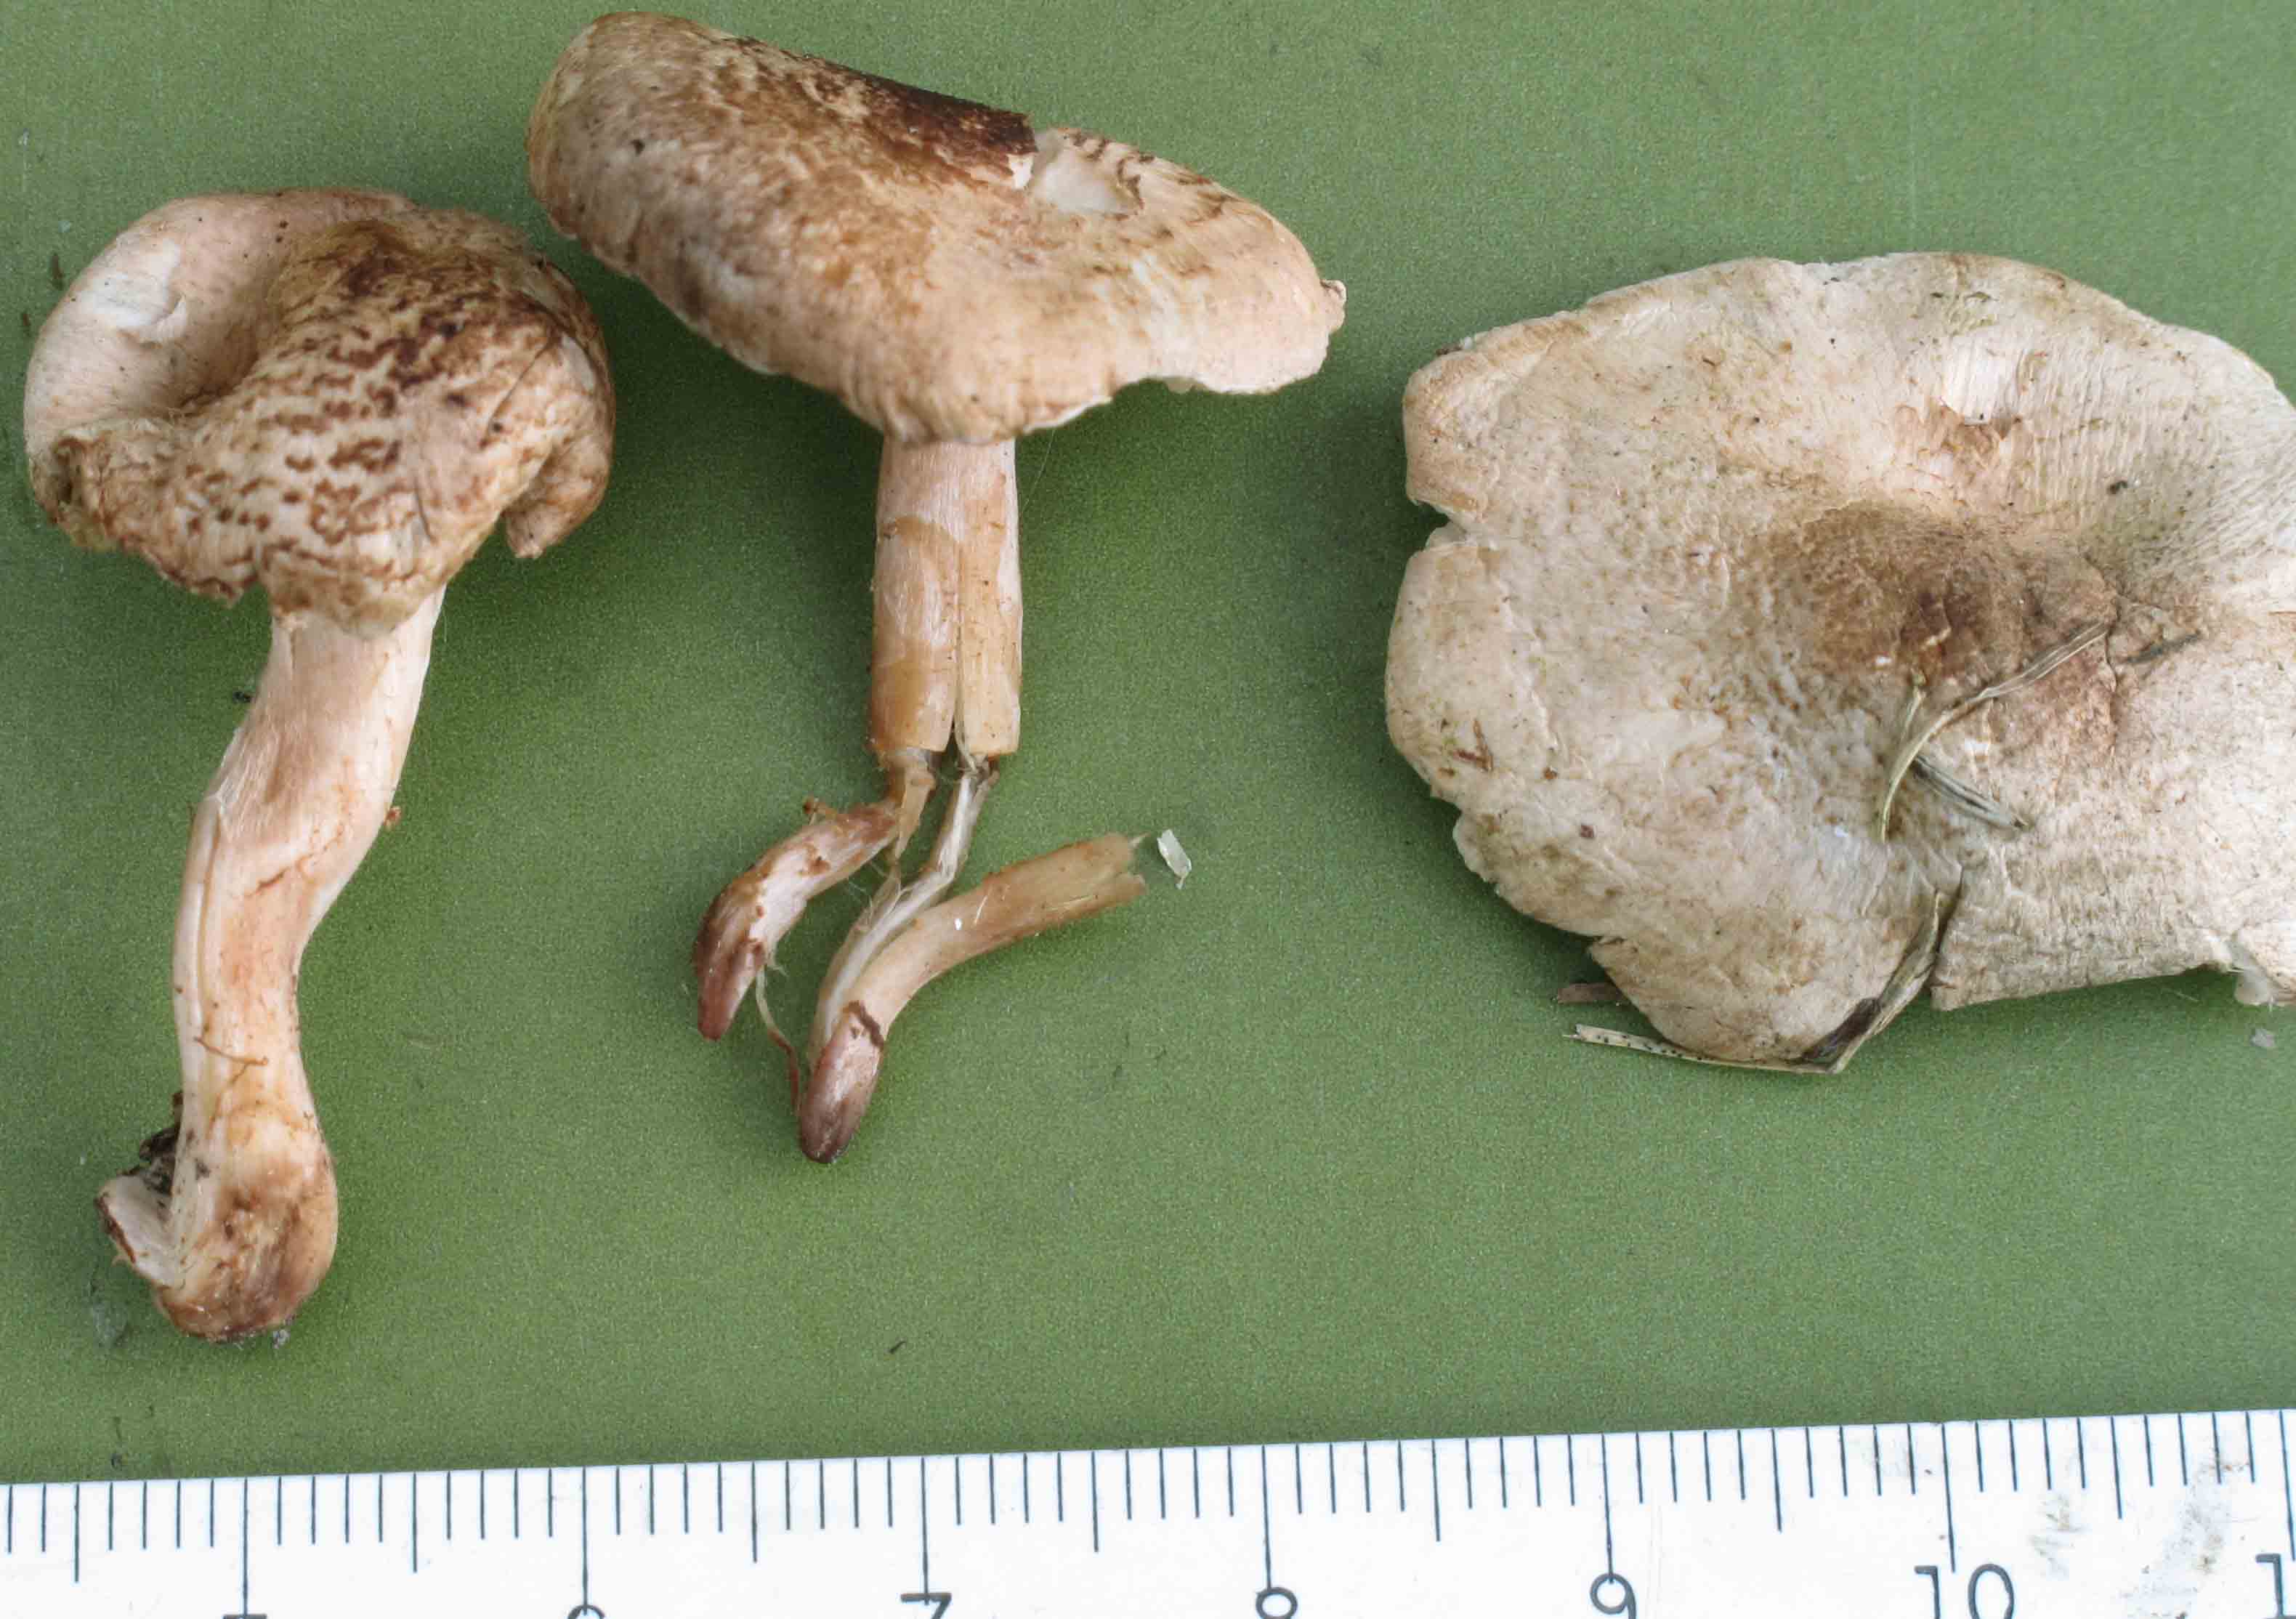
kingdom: Fungi
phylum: Basidiomycota
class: Agaricomycetes
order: Agaricales
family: Agaricaceae
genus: Lepiota
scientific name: Lepiota subincarnata
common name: kødfarvet parasolhat
